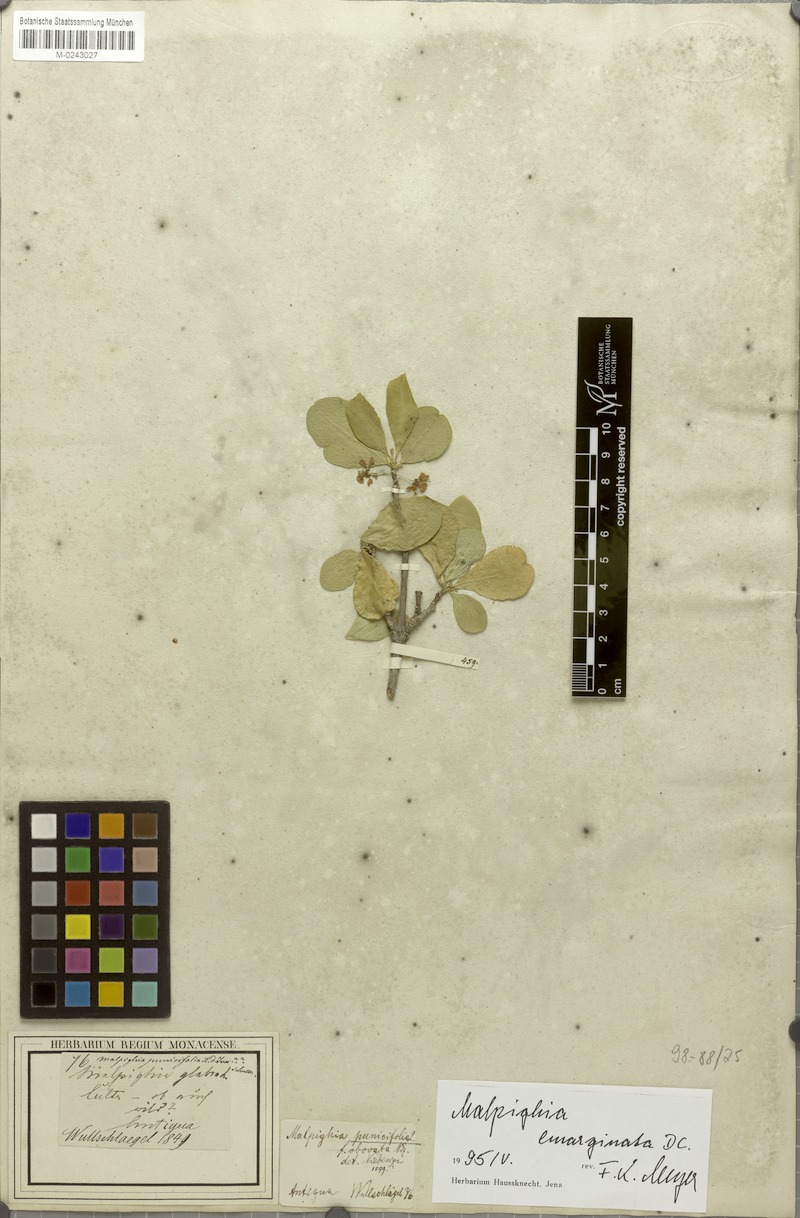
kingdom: Plantae
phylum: Tracheophyta
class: Magnoliopsida
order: Malpighiales
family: Malpighiaceae
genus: Malpighia
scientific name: Malpighia emarginata
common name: Barbados cherry
